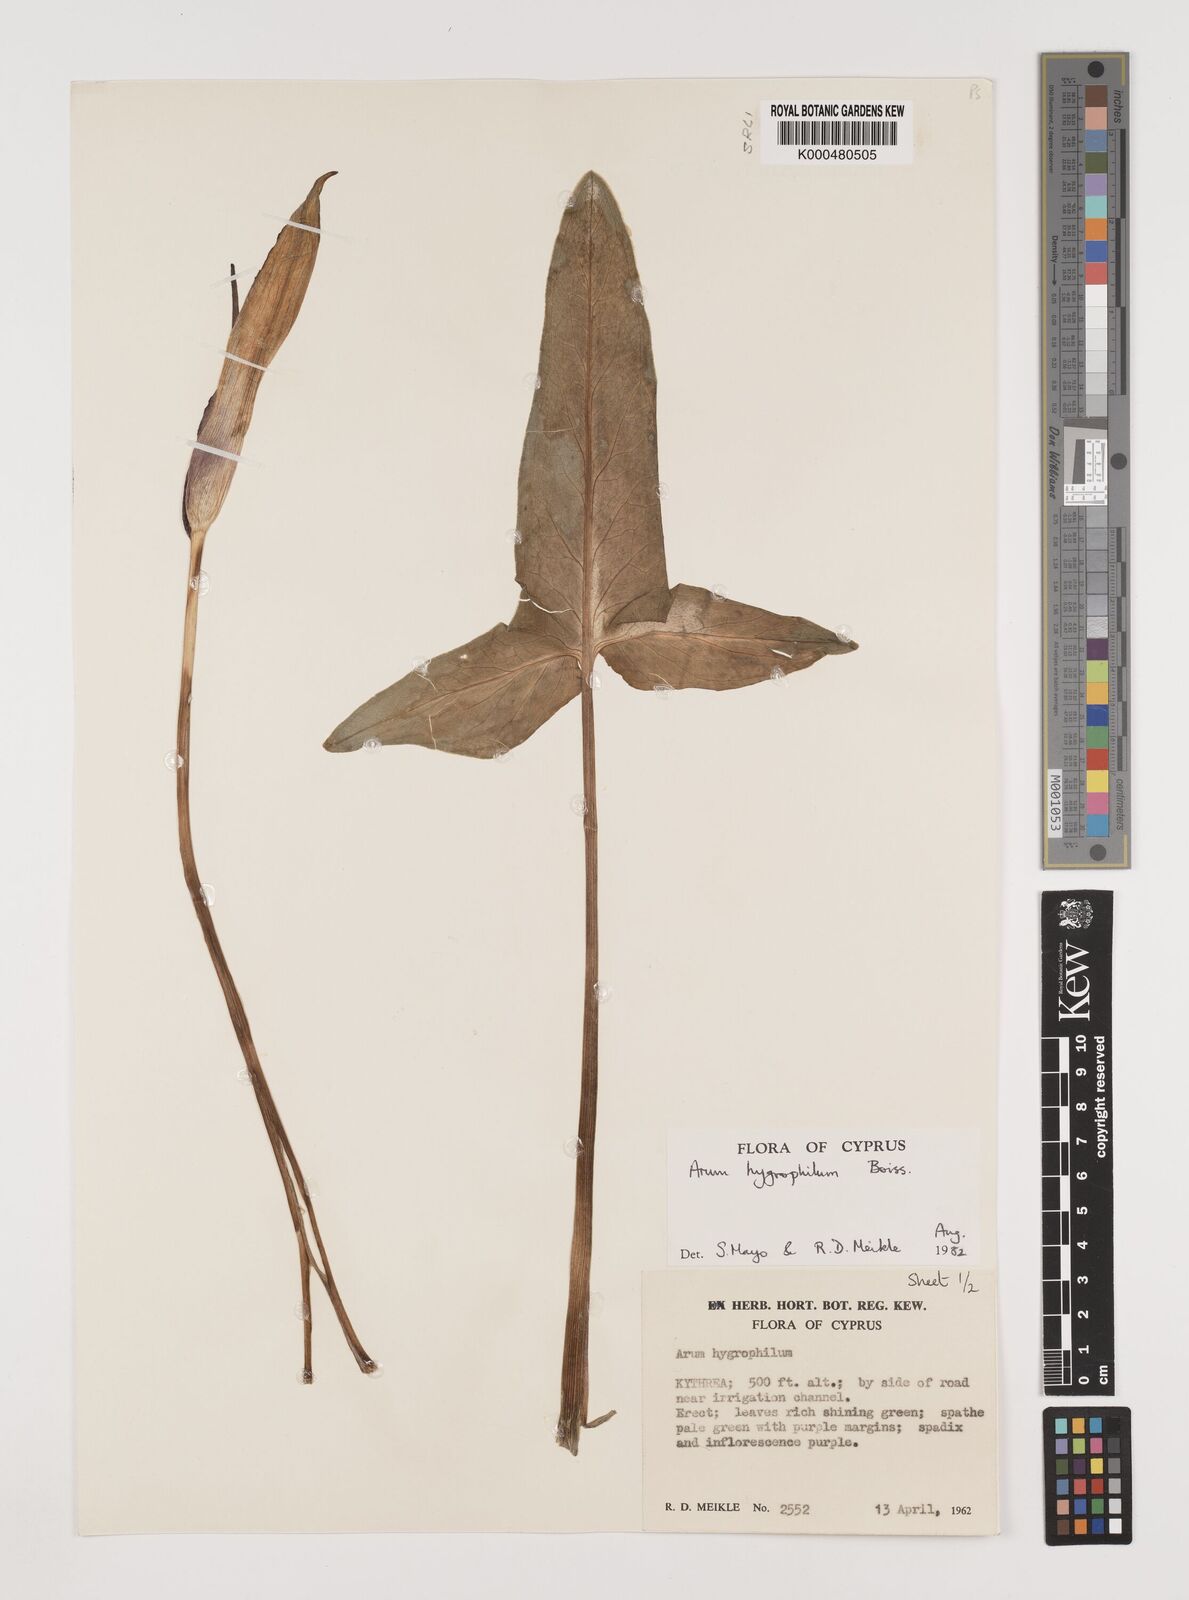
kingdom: Plantae
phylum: Tracheophyta
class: Liliopsida
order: Alismatales
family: Araceae
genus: Arum
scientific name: Arum hygrophilum
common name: Water arum
